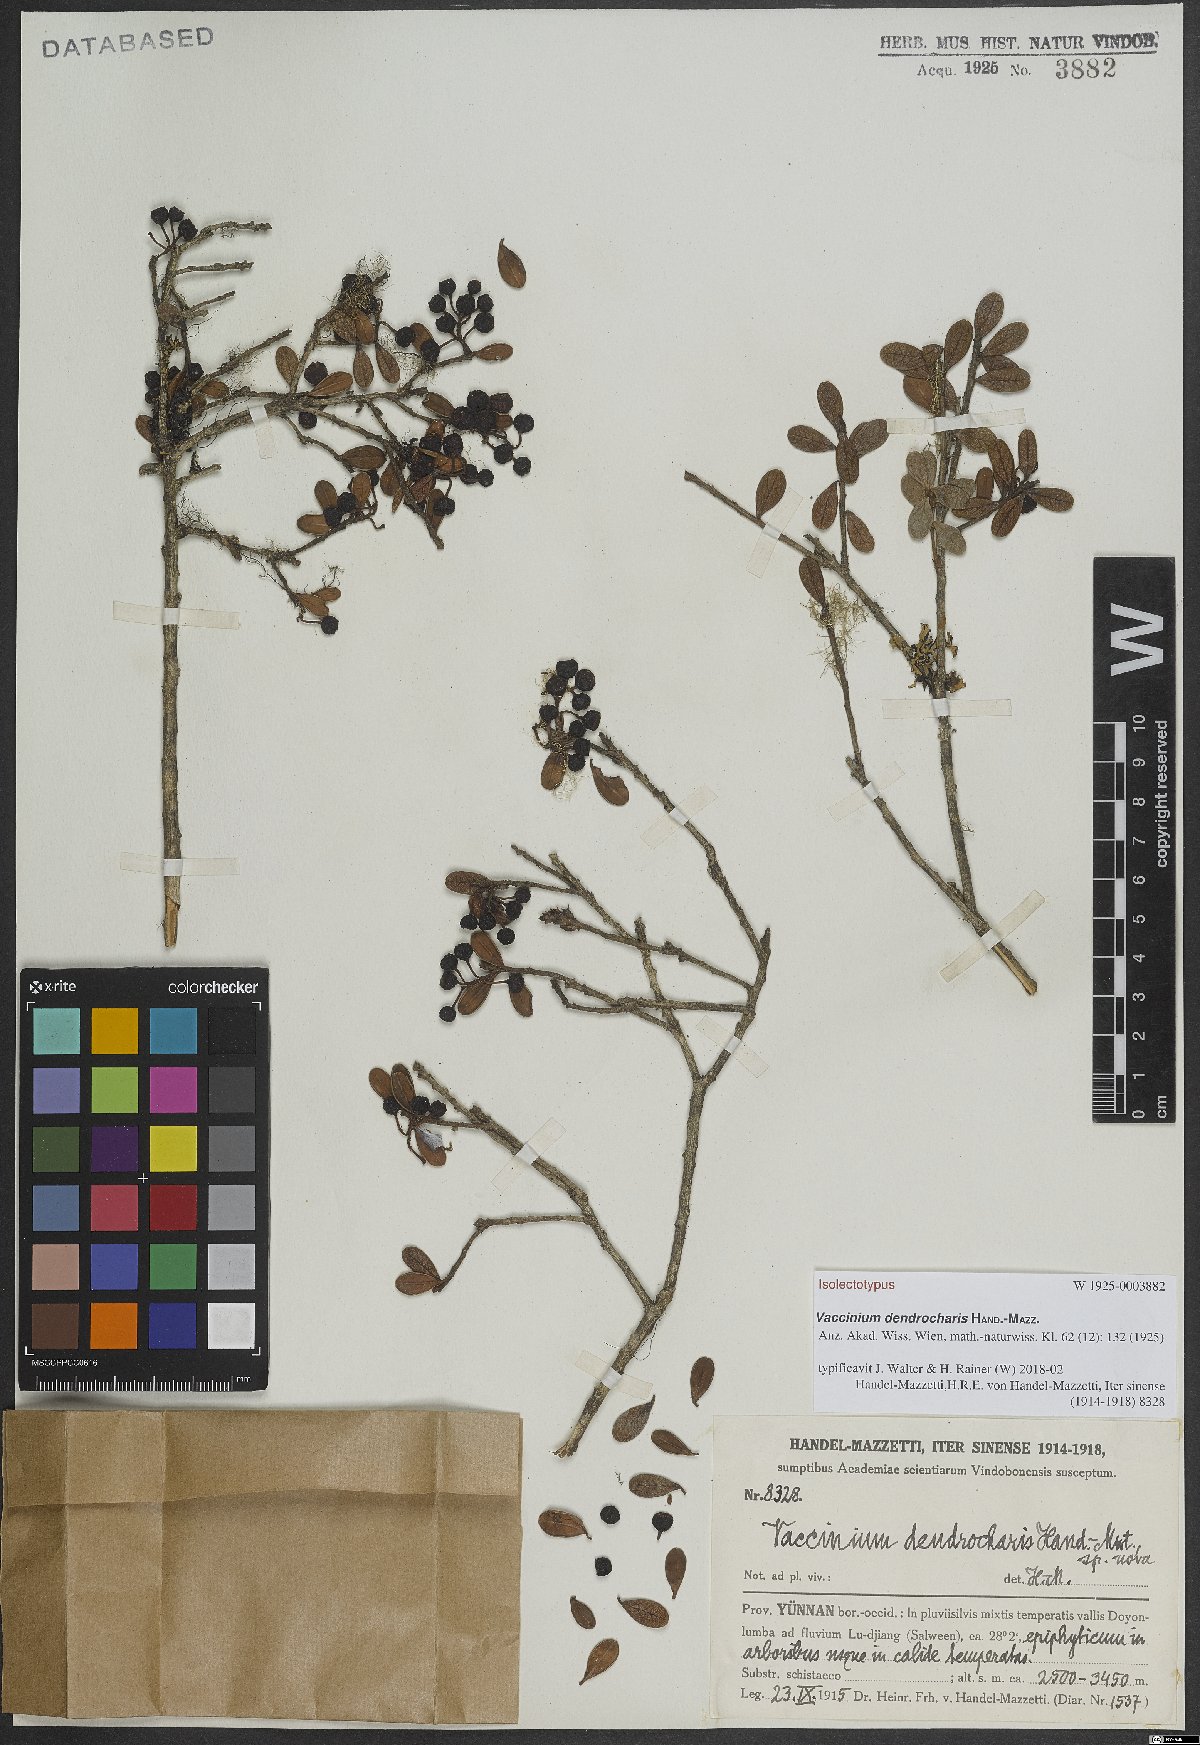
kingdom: Plantae
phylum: Tracheophyta
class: Magnoliopsida
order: Ericales
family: Ericaceae
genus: Vaccinium
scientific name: Vaccinium dendrocharis
